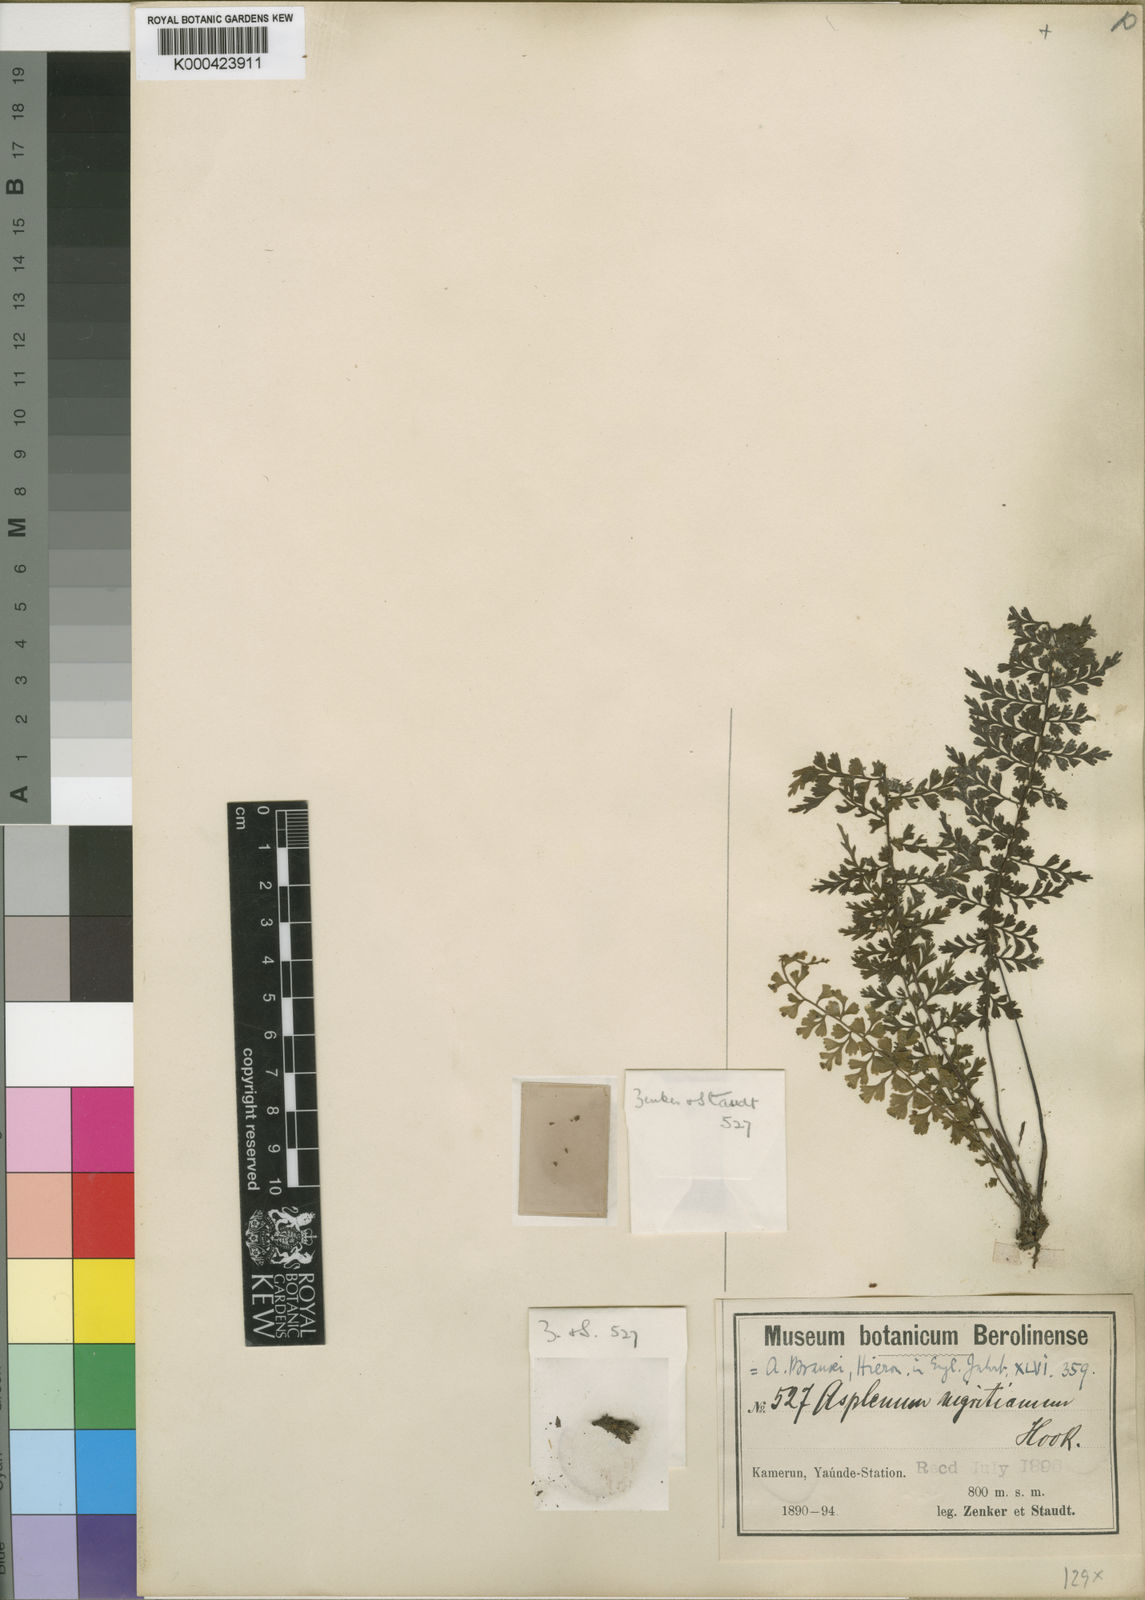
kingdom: Plantae
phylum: Tracheophyta
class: Polypodiopsida
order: Polypodiales
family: Aspleniaceae
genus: Asplenium
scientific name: Asplenium brausei
